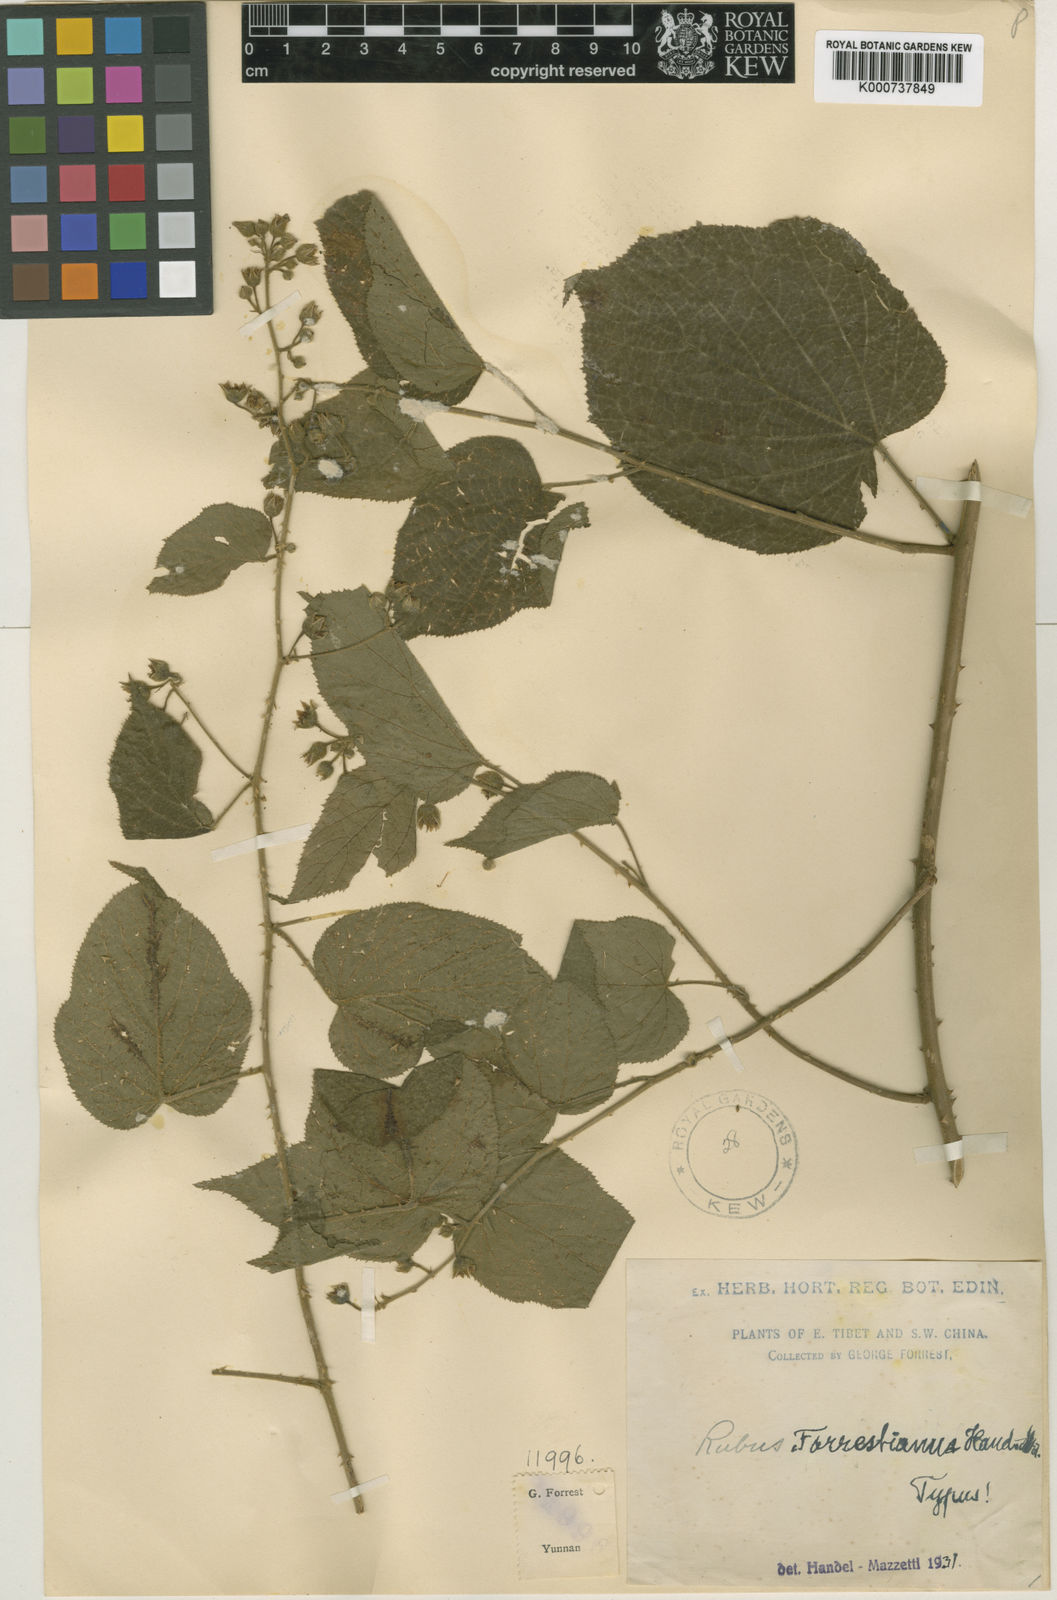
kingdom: Plantae
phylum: Tracheophyta
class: Magnoliopsida
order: Rosales
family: Rosaceae
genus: Rubus
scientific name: Rubus forrestianus
